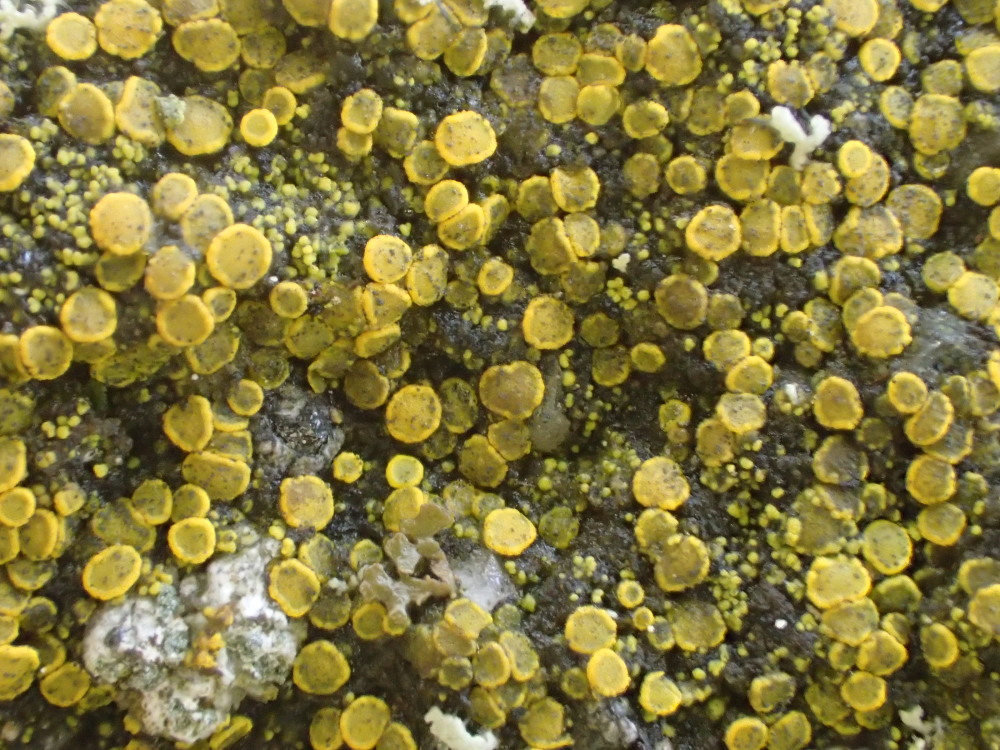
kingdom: Fungi
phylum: Ascomycota
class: Candelariomycetes
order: Candelariales
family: Candelariaceae
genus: Candelariella
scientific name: Candelariella aurella
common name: liden æggeblommelav
